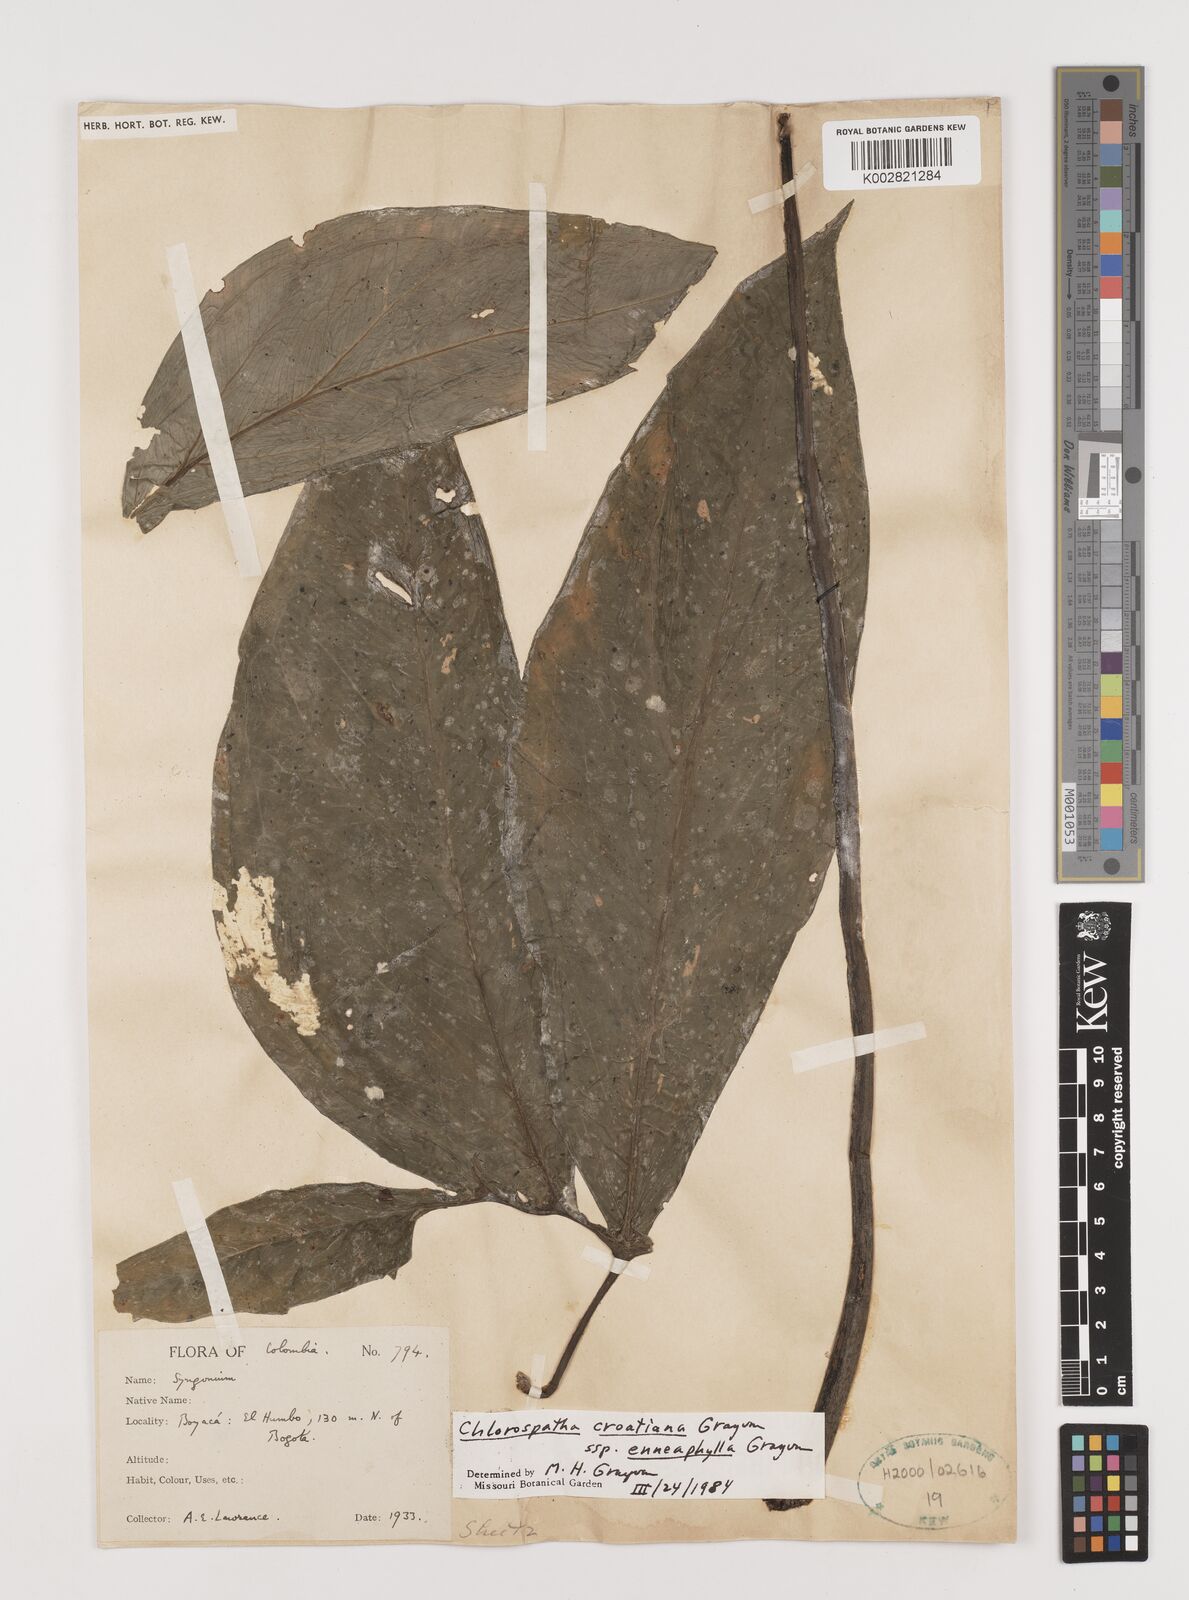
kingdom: Plantae
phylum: Tracheophyta
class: Liliopsida
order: Alismatales
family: Araceae
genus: Chlorospatha
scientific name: Chlorospatha croatiana
